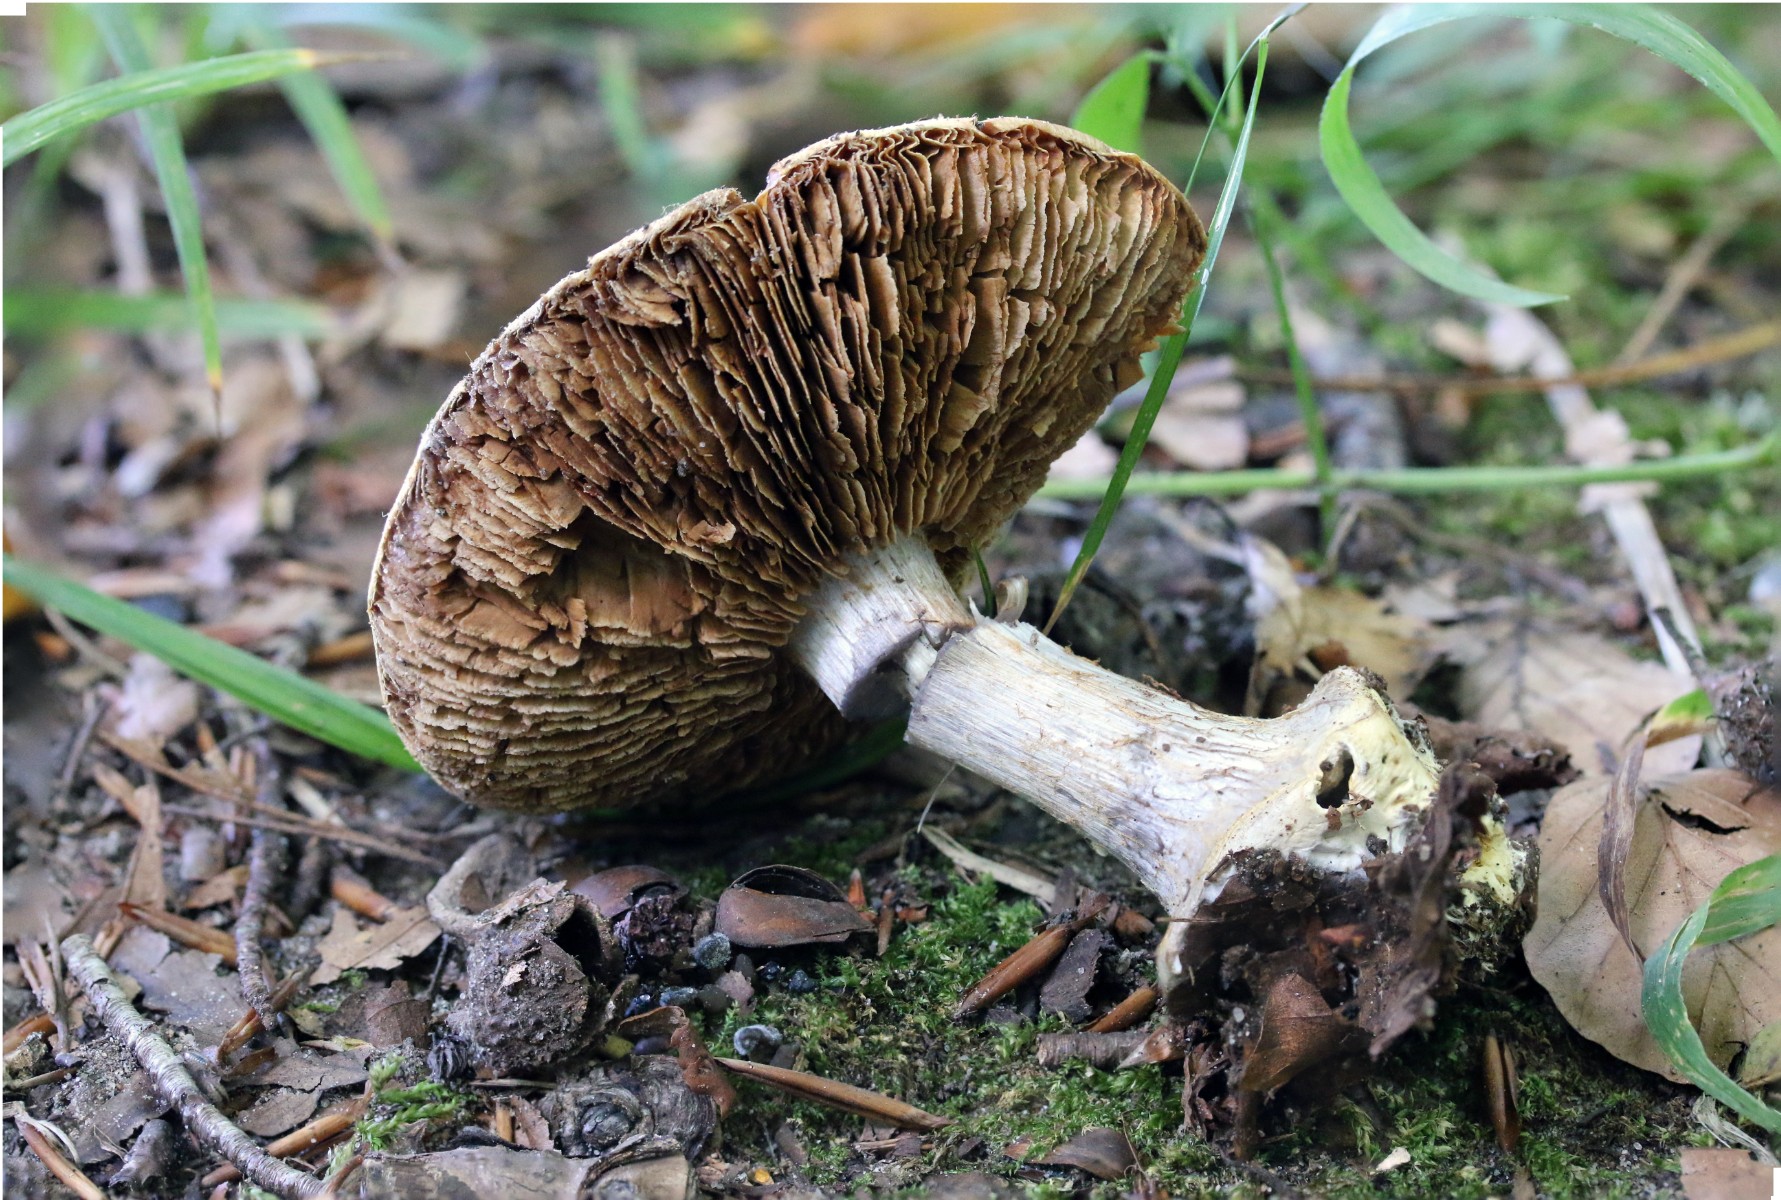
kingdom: Fungi
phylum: Basidiomycota
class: Agaricomycetes
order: Agaricales
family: Cortinariaceae
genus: Cortinarius
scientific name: Cortinarius caerulescens
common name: blåkødet slørhat
